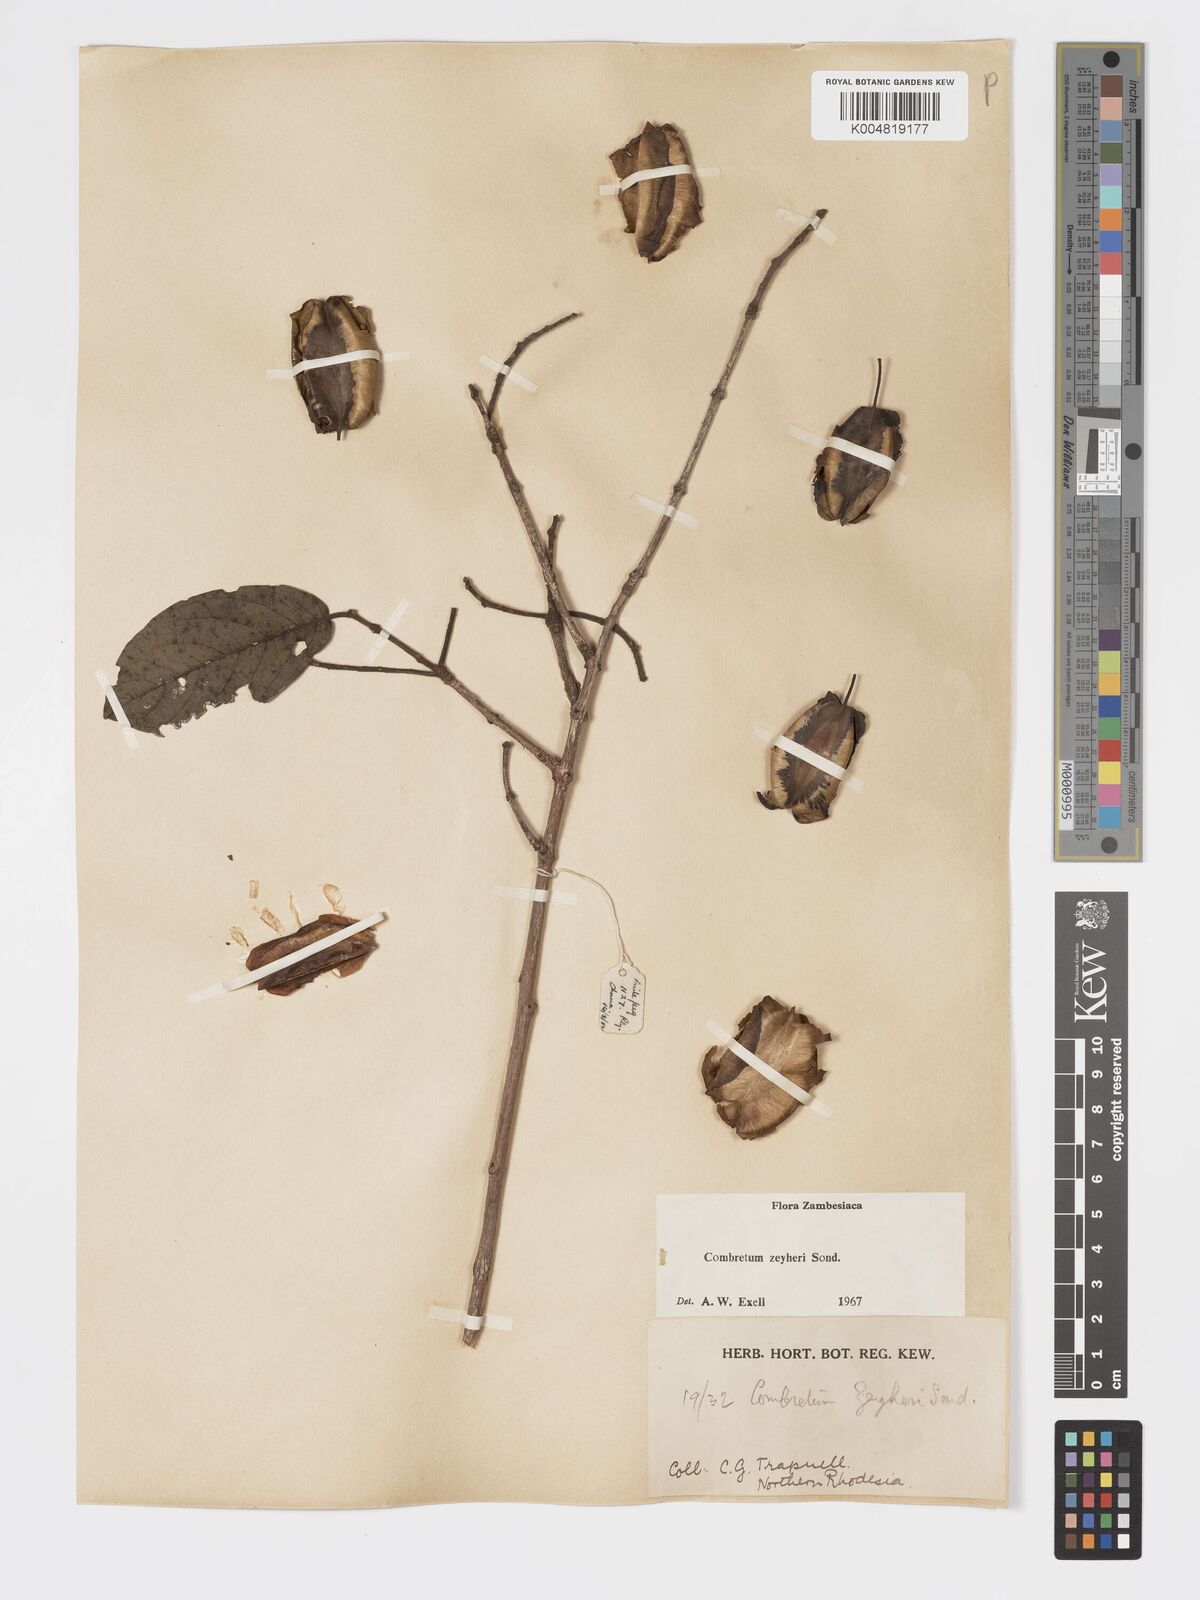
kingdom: Plantae
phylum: Tracheophyta
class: Magnoliopsida
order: Myrtales
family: Combretaceae
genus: Combretum
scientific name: Combretum zeyheri
